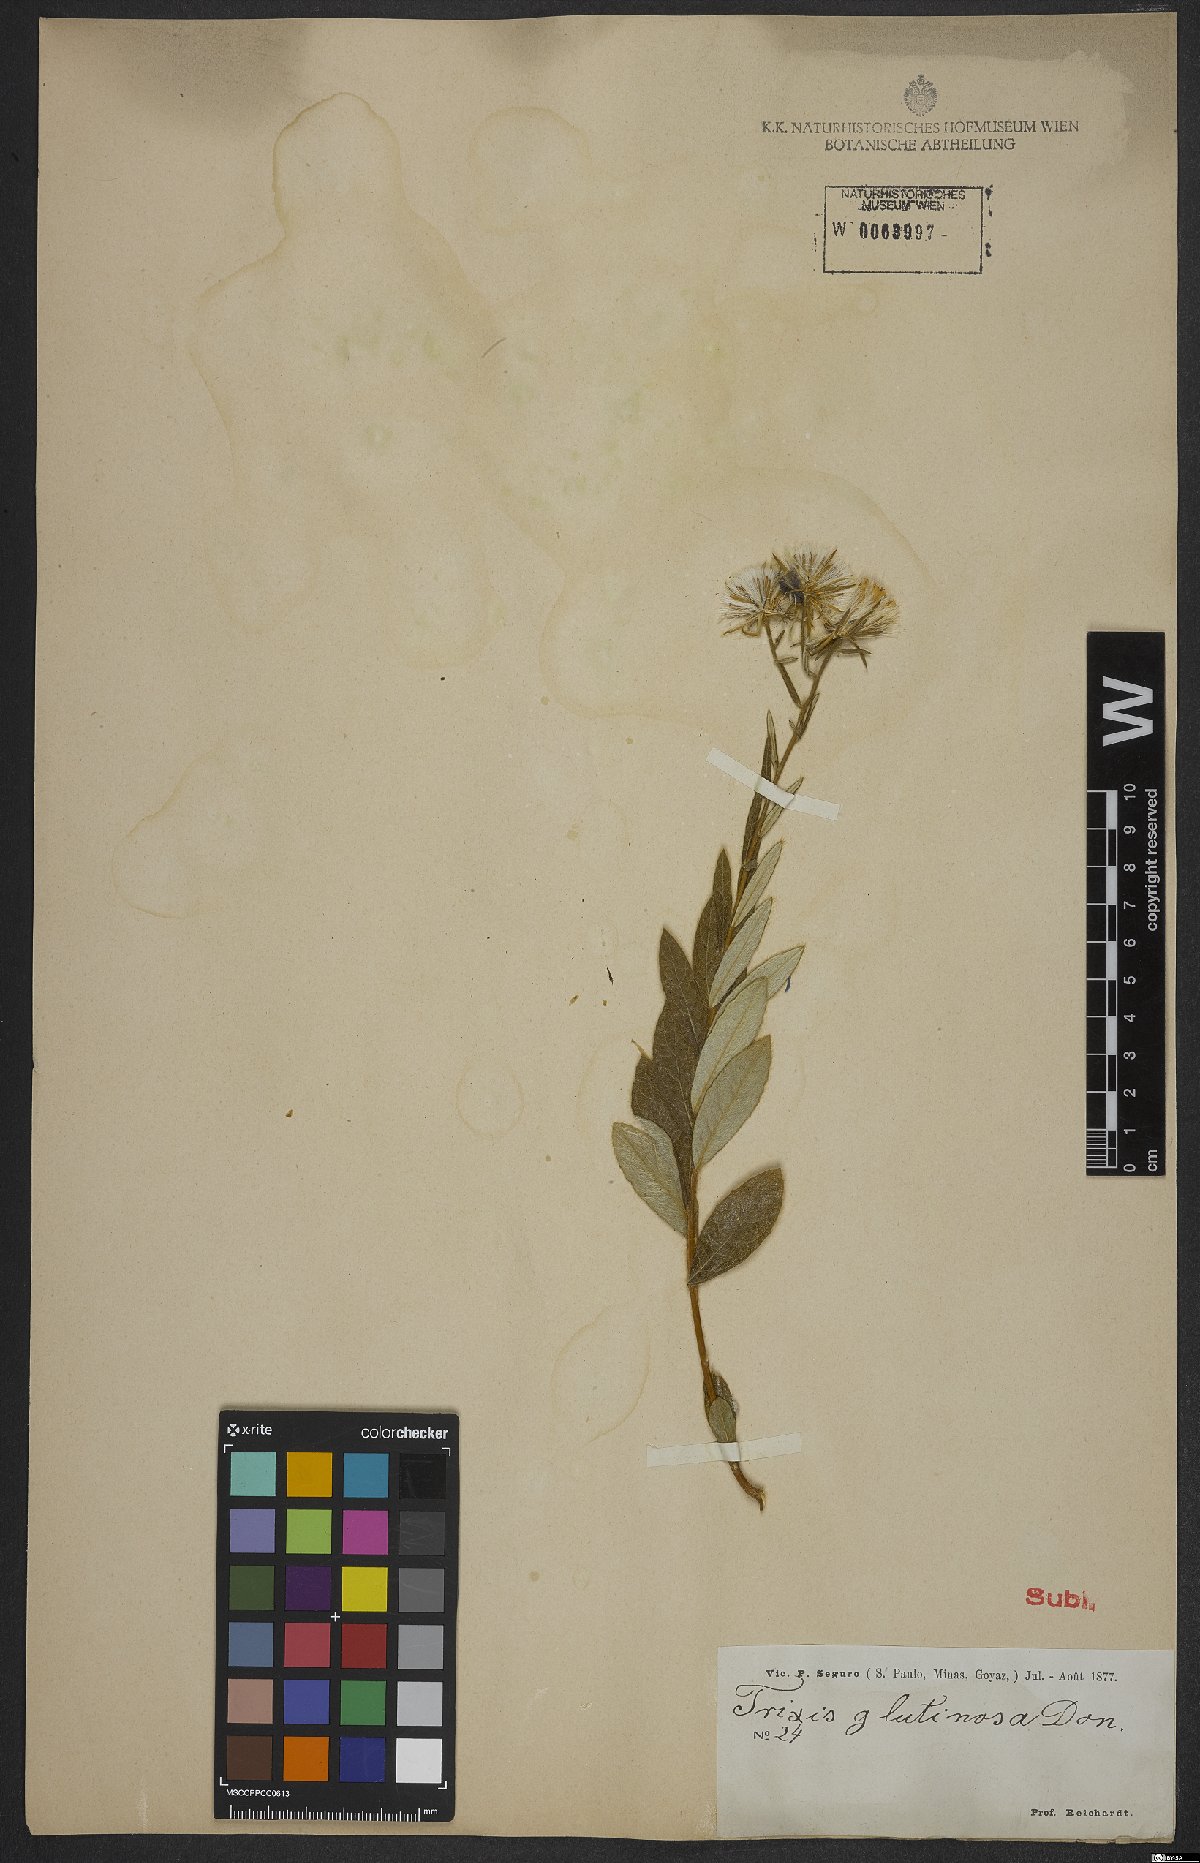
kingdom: Plantae
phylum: Tracheophyta
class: Magnoliopsida
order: Asterales
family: Asteraceae
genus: Trixis
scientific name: Trixis glutinosa
